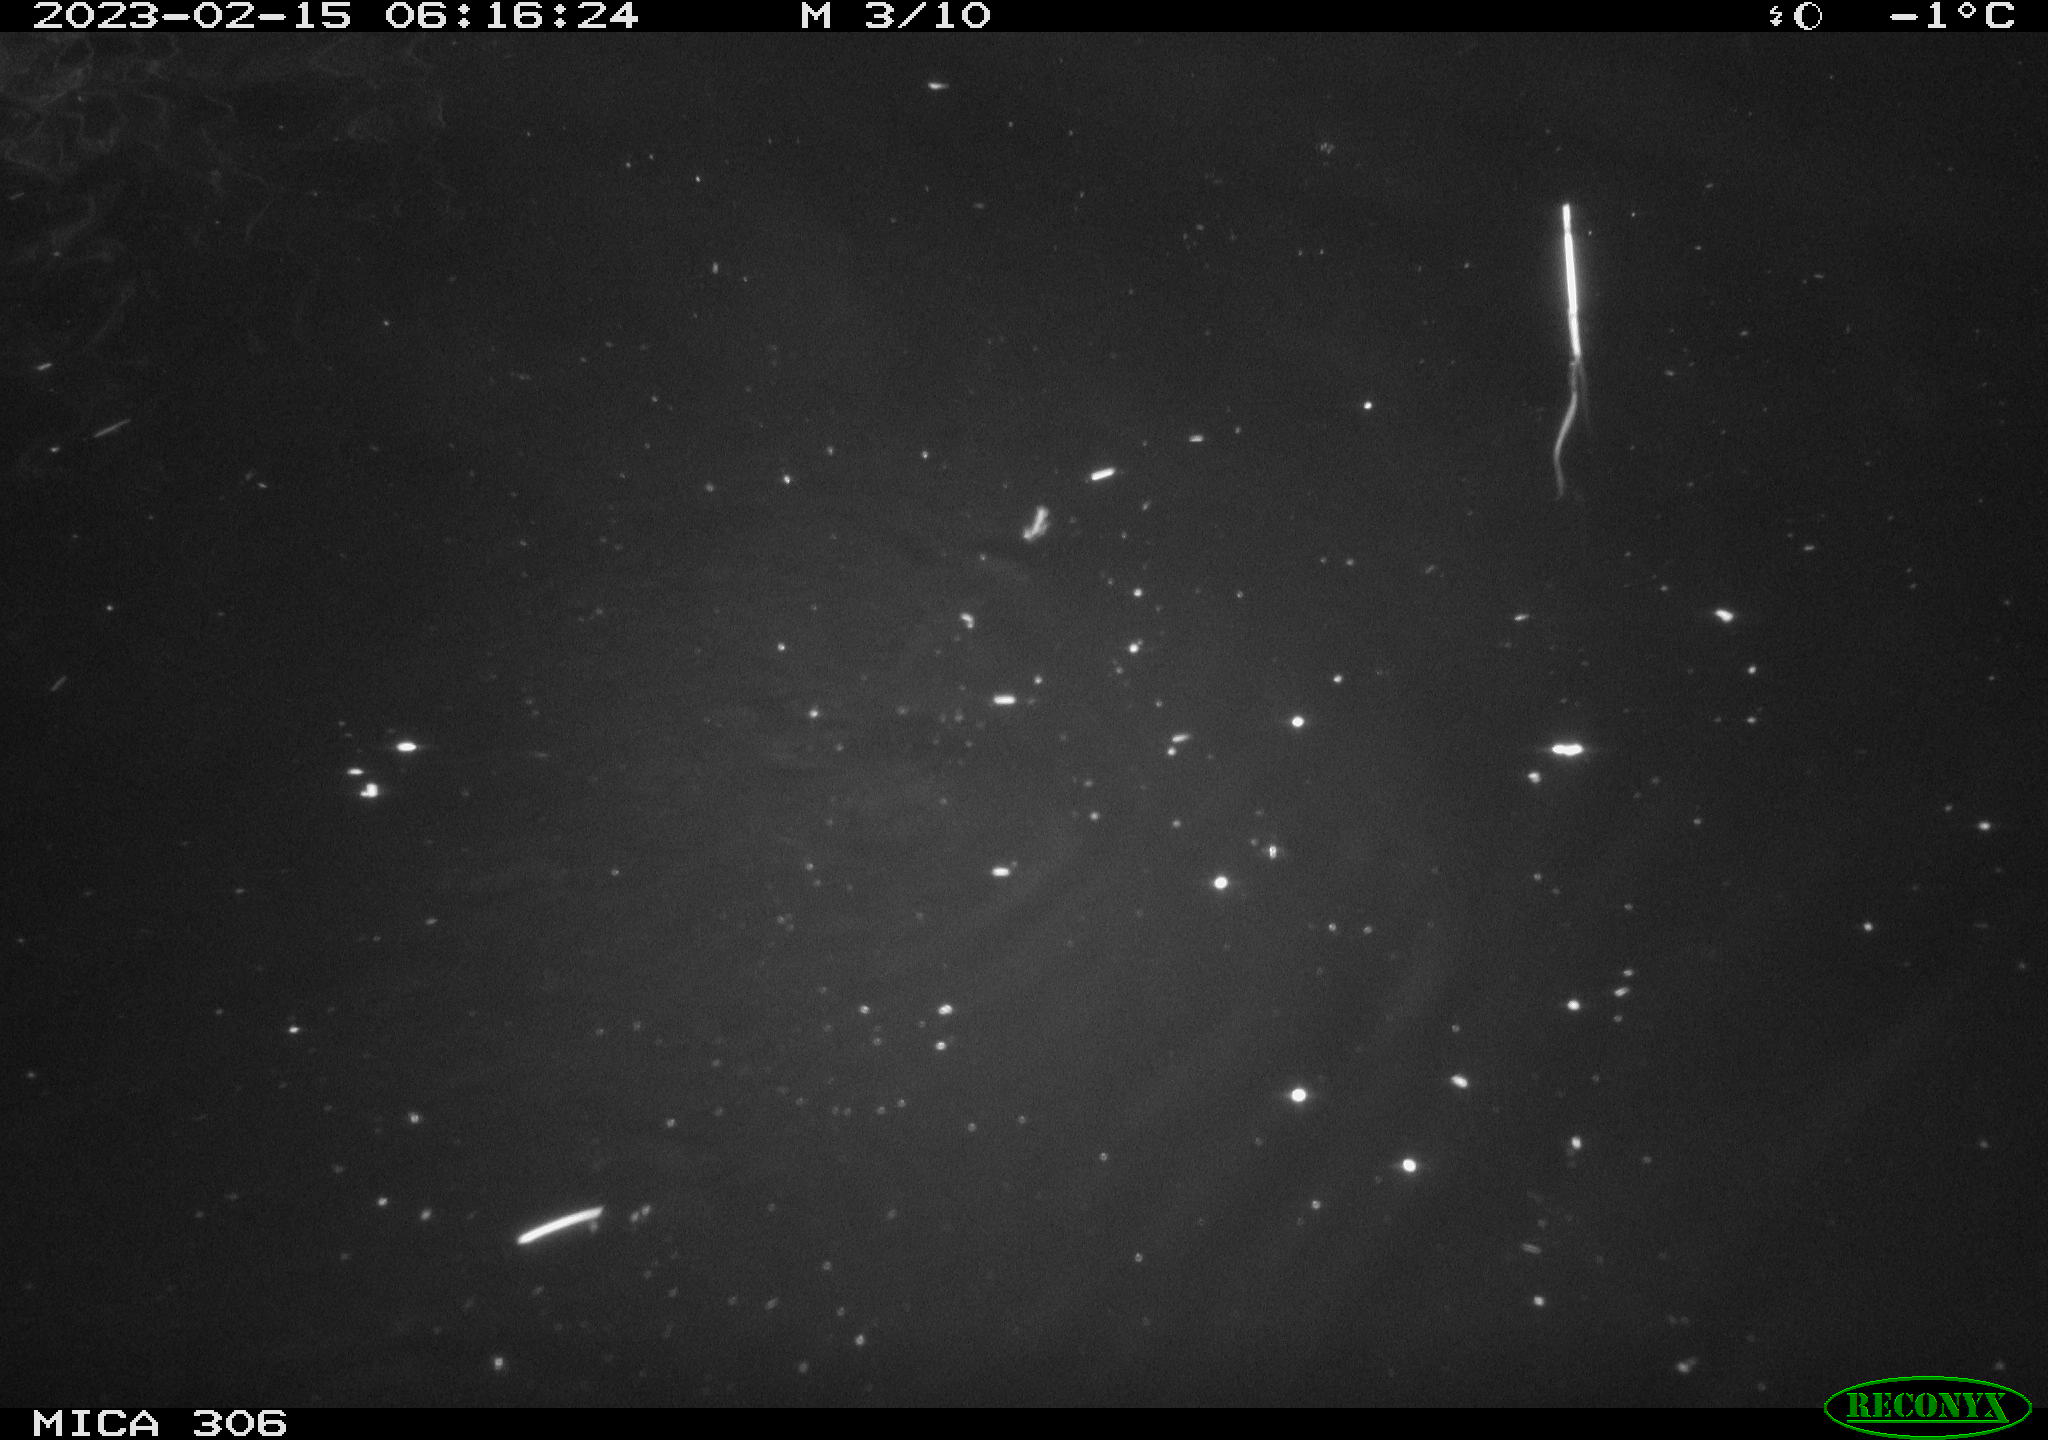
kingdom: Animalia
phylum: Chordata
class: Mammalia
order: Rodentia
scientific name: Rodentia
